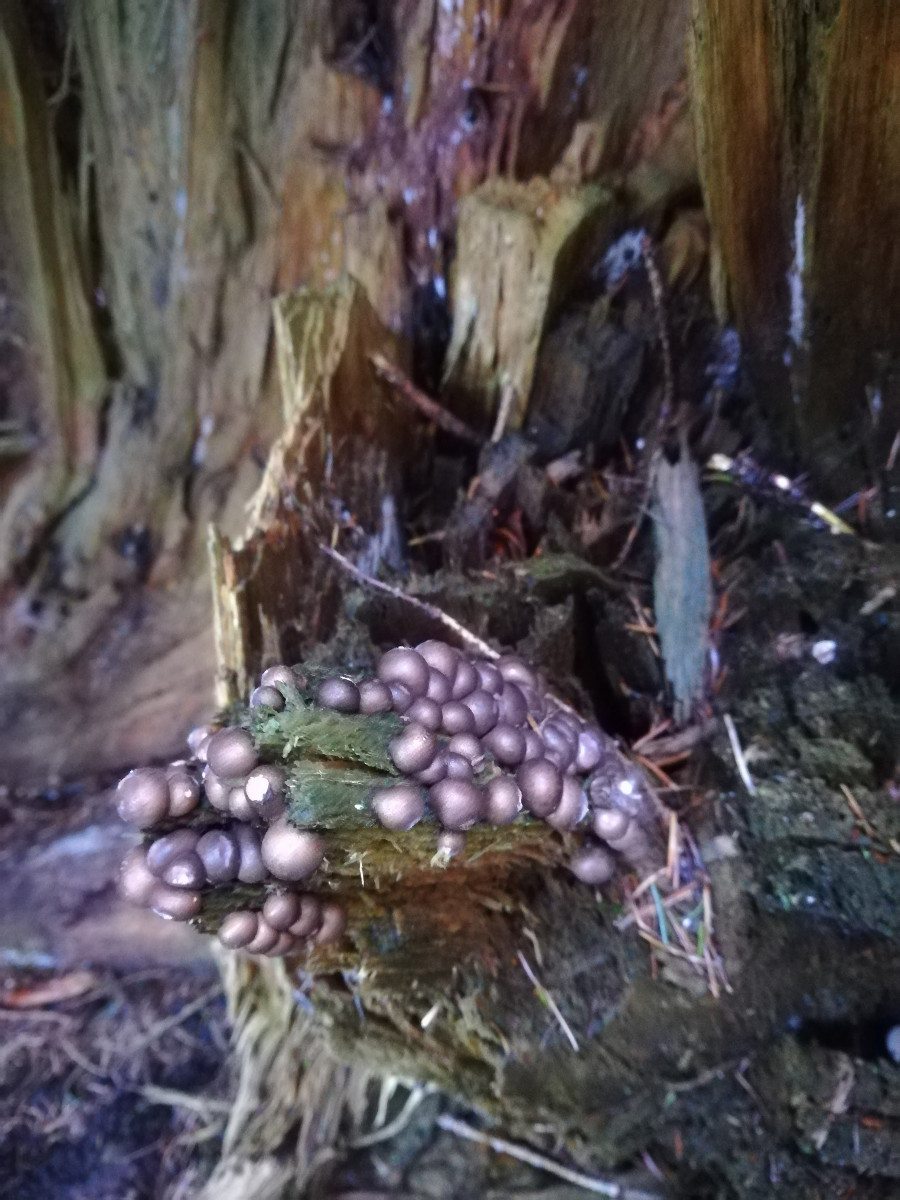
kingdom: Protozoa
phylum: Mycetozoa
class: Myxomycetes
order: Cribrariales
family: Tubiferaceae
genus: Lycogala
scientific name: Lycogala epidendrum
